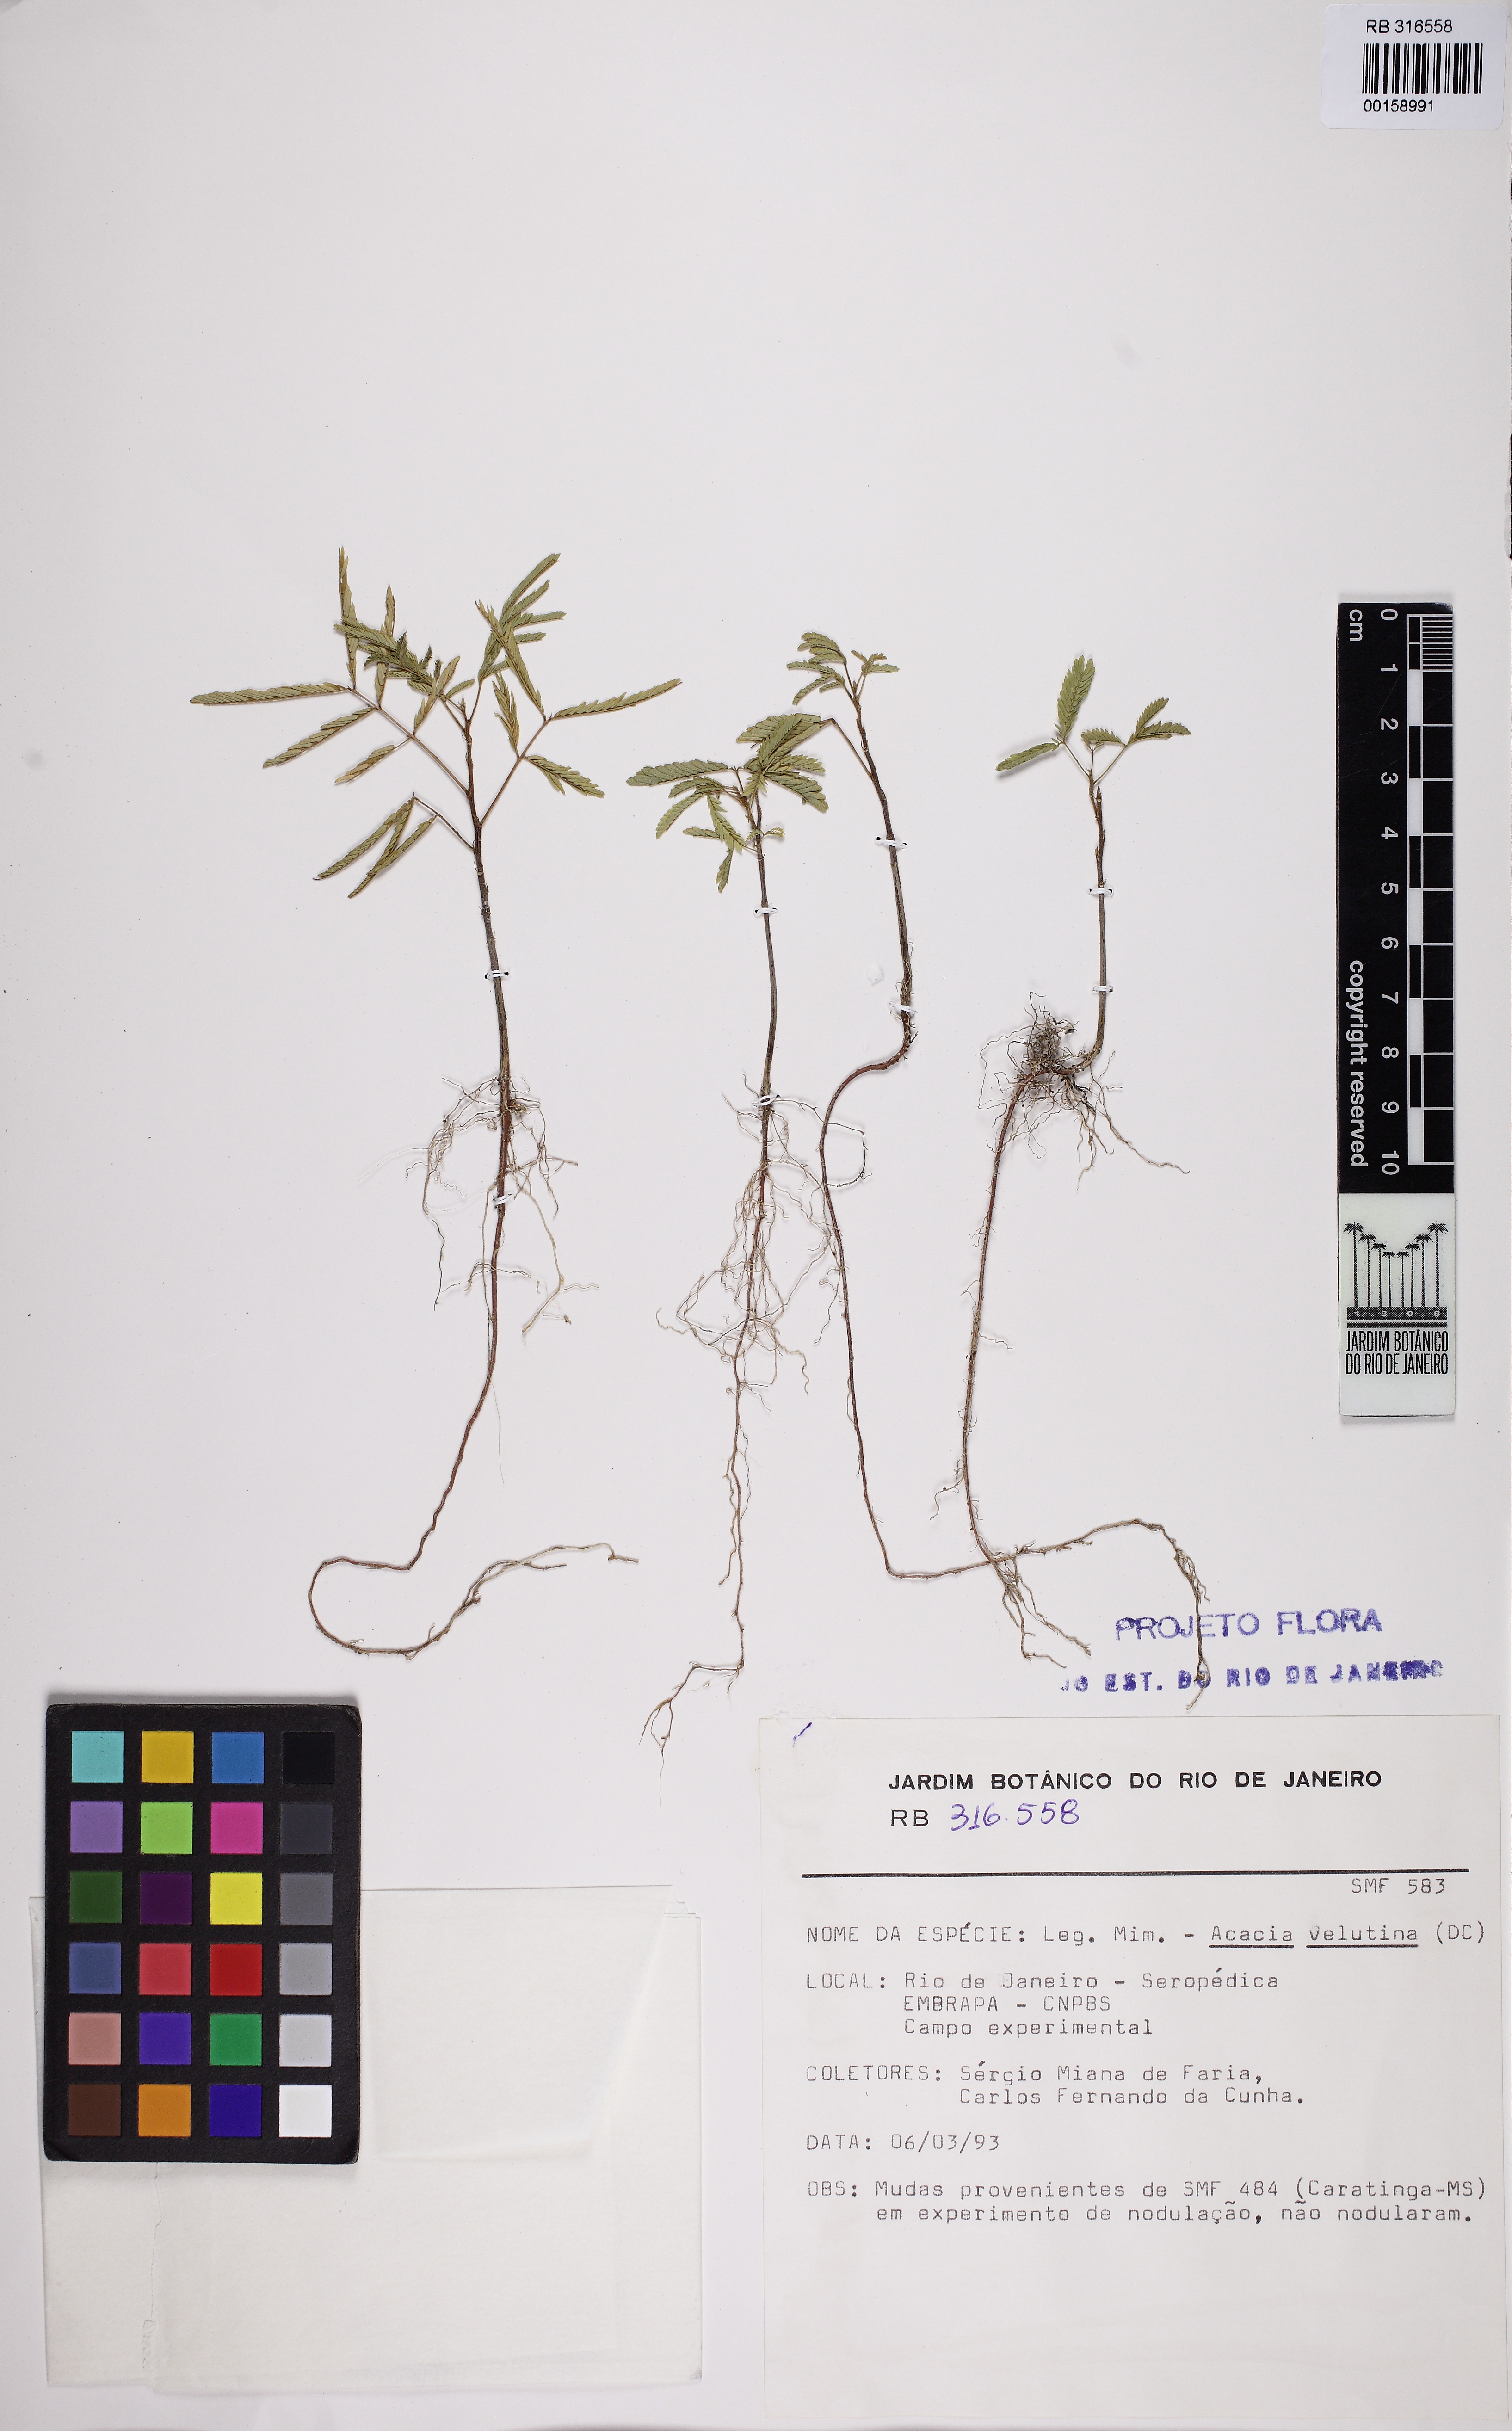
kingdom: Plantae
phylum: Tracheophyta
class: Magnoliopsida
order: Fabales
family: Fabaceae
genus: Senegalia
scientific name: Senegalia monacantha
